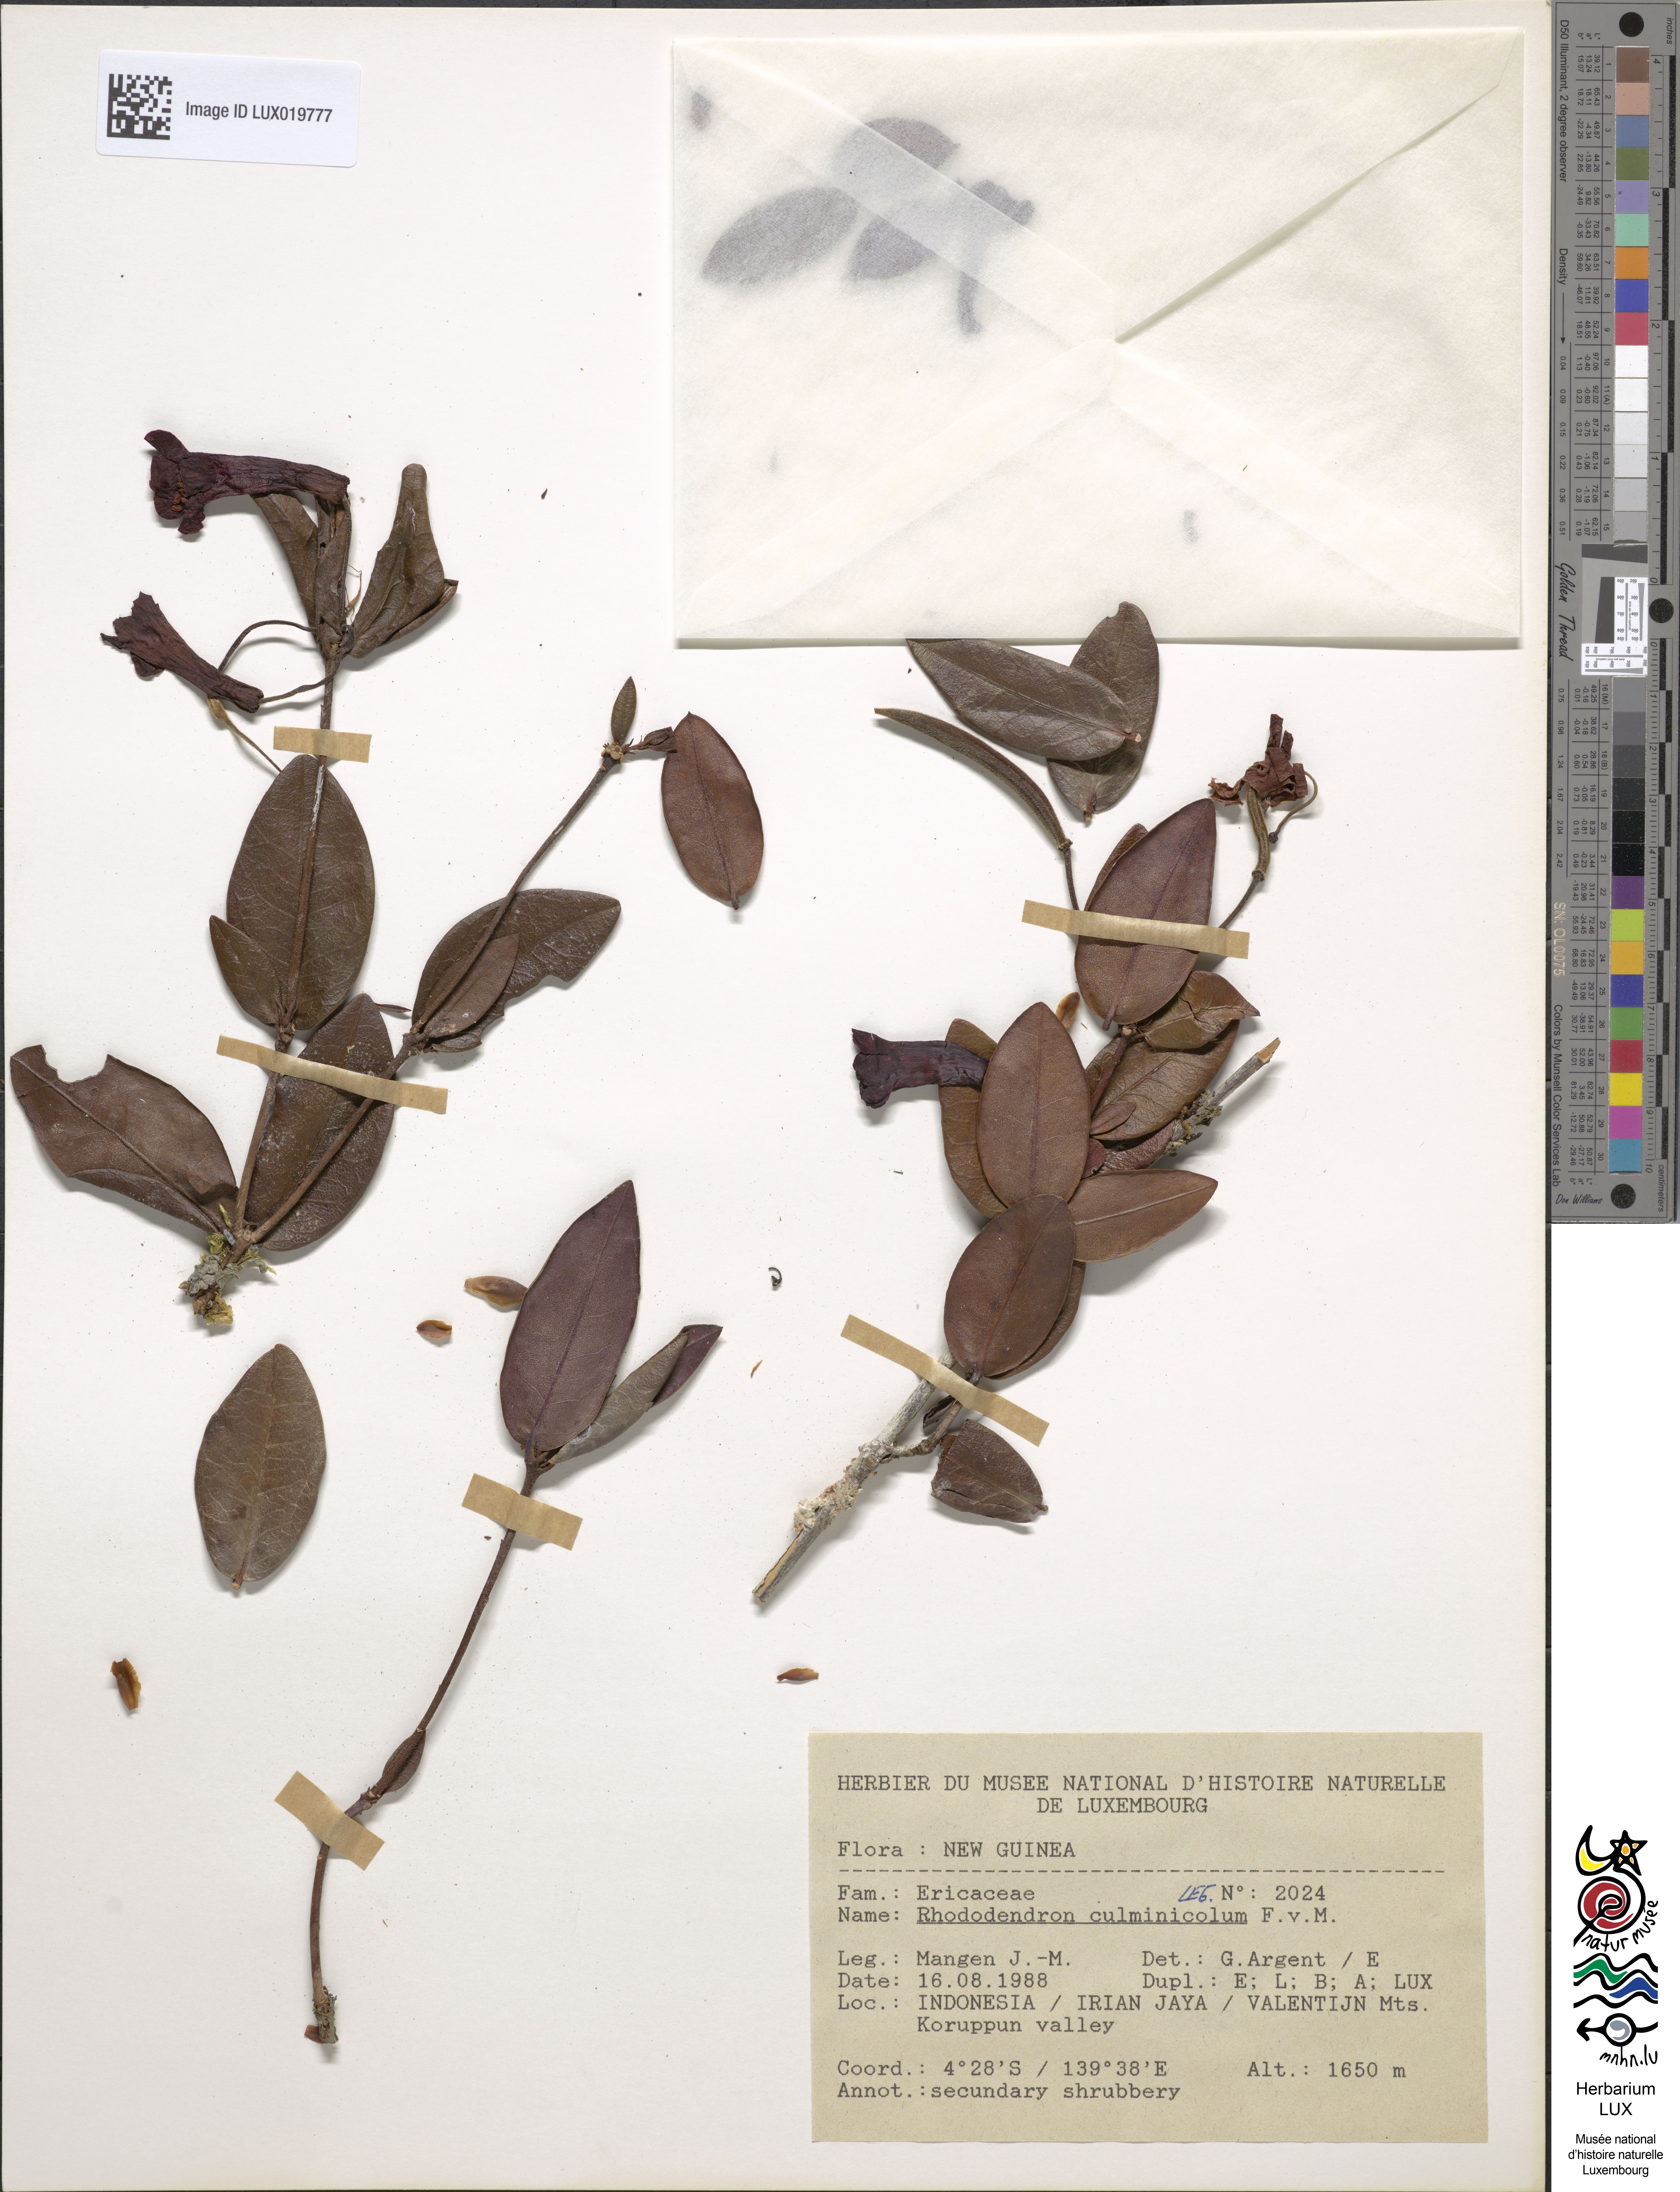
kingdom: Plantae
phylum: Tracheophyta
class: Magnoliopsida
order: Ericales
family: Ericaceae
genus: Rhododendron
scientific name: Rhododendron culminicola
